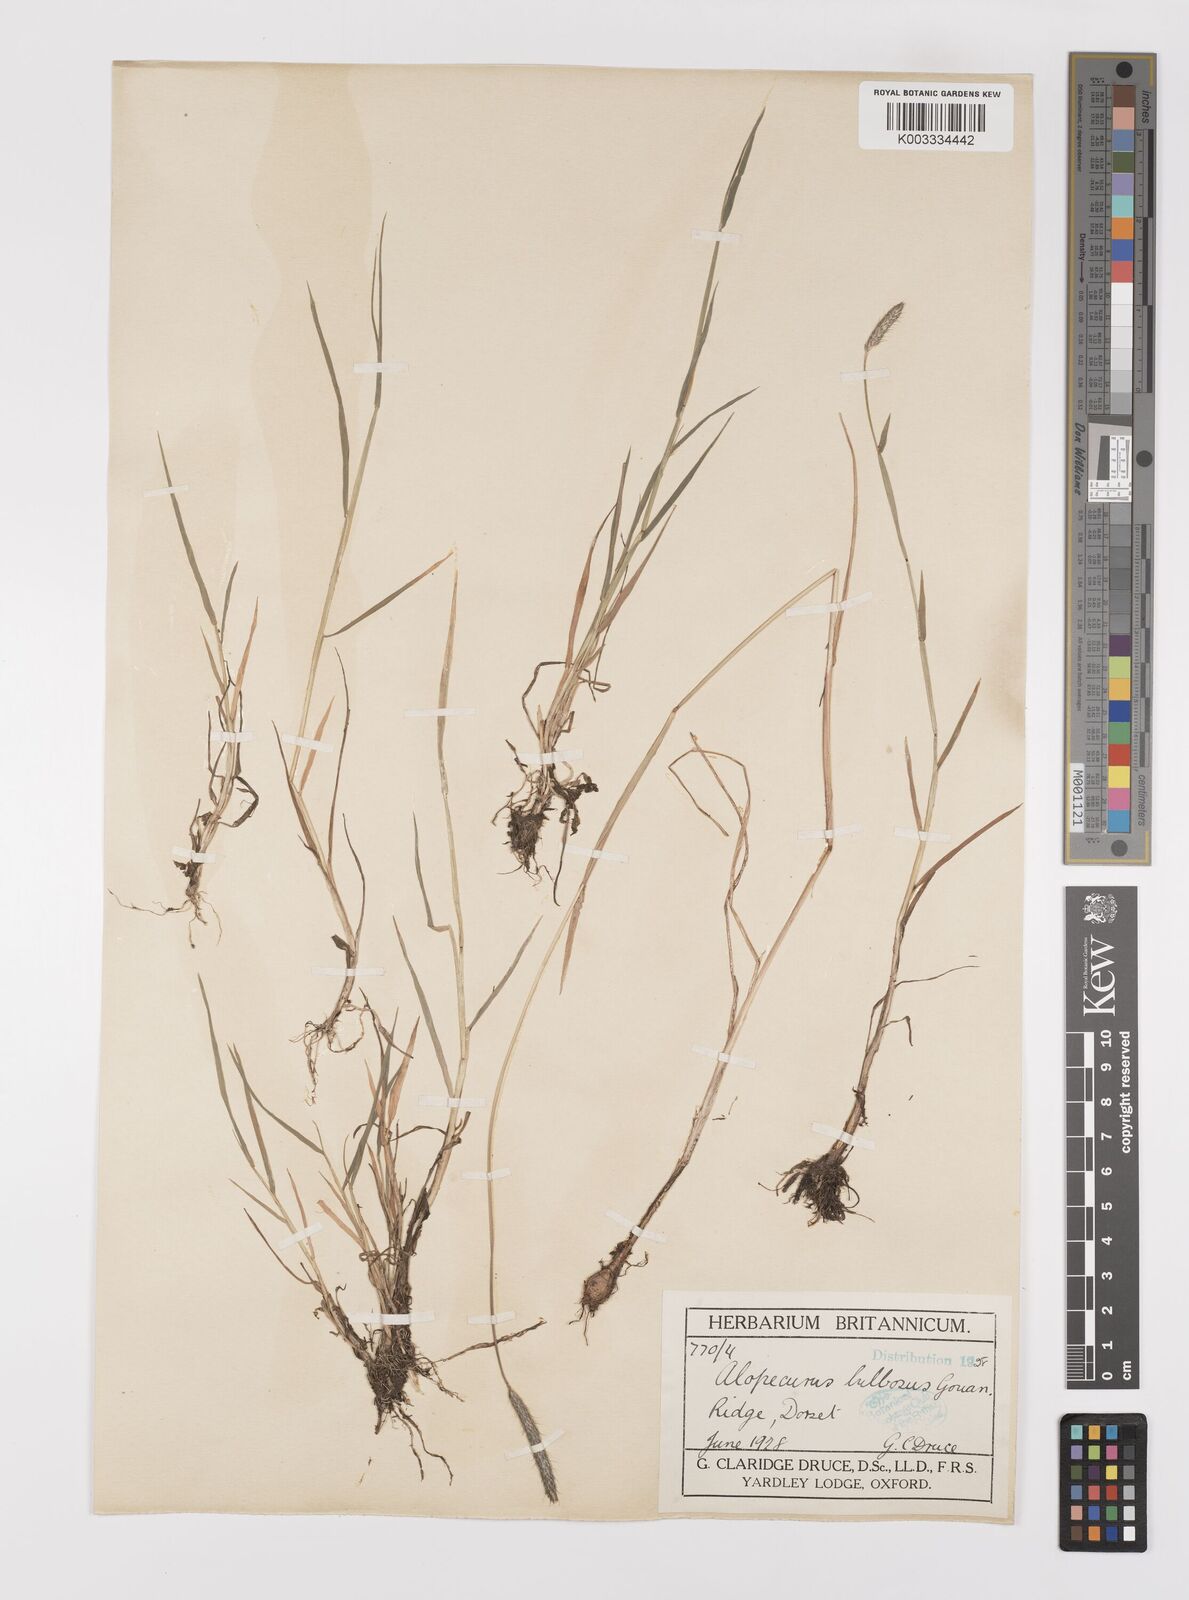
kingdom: Plantae
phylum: Tracheophyta
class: Liliopsida
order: Poales
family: Poaceae
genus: Alopecurus
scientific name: Alopecurus bulbosus
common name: Bulbous foxtail
